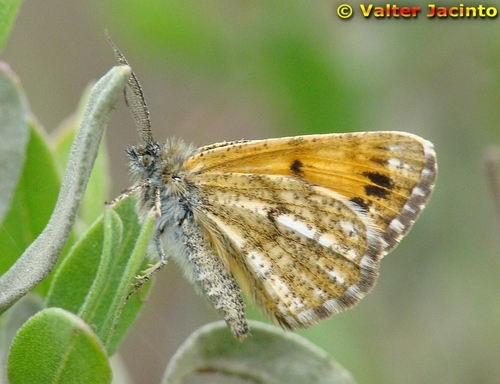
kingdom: Animalia
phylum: Arthropoda
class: Insecta
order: Lepidoptera
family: Geometridae
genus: Isturgia
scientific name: Isturgia famula
